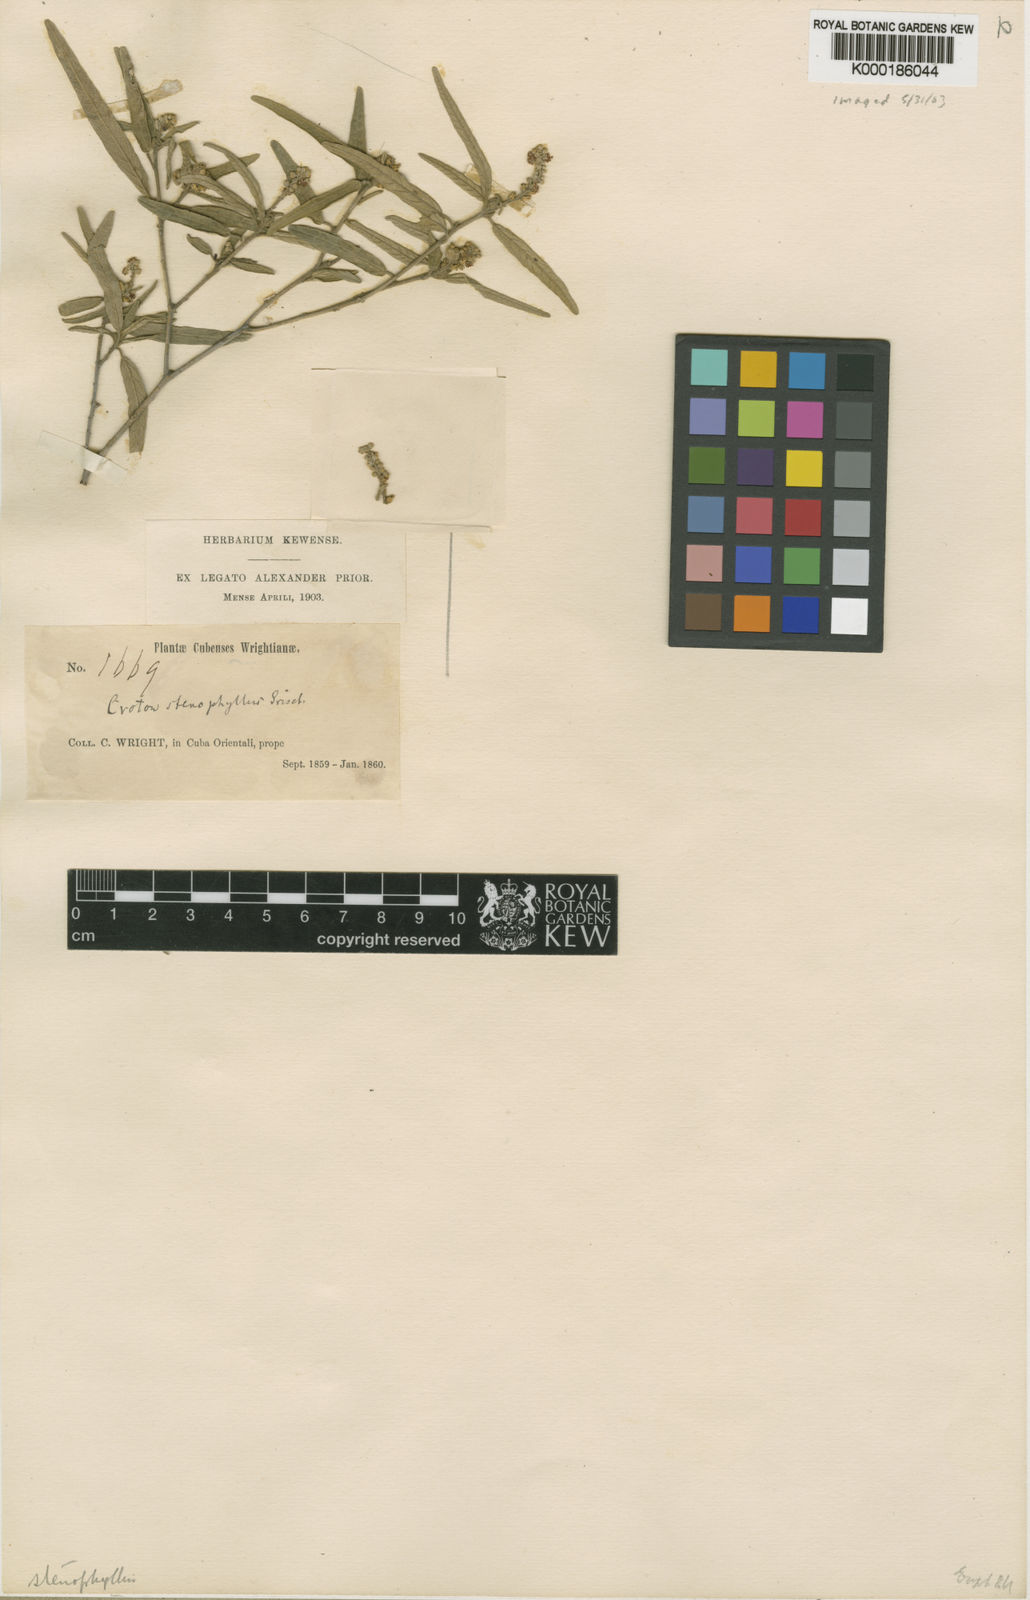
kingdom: Plantae
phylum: Tracheophyta
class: Magnoliopsida
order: Malpighiales
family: Euphorbiaceae
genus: Croton
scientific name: Croton stenophyllus
